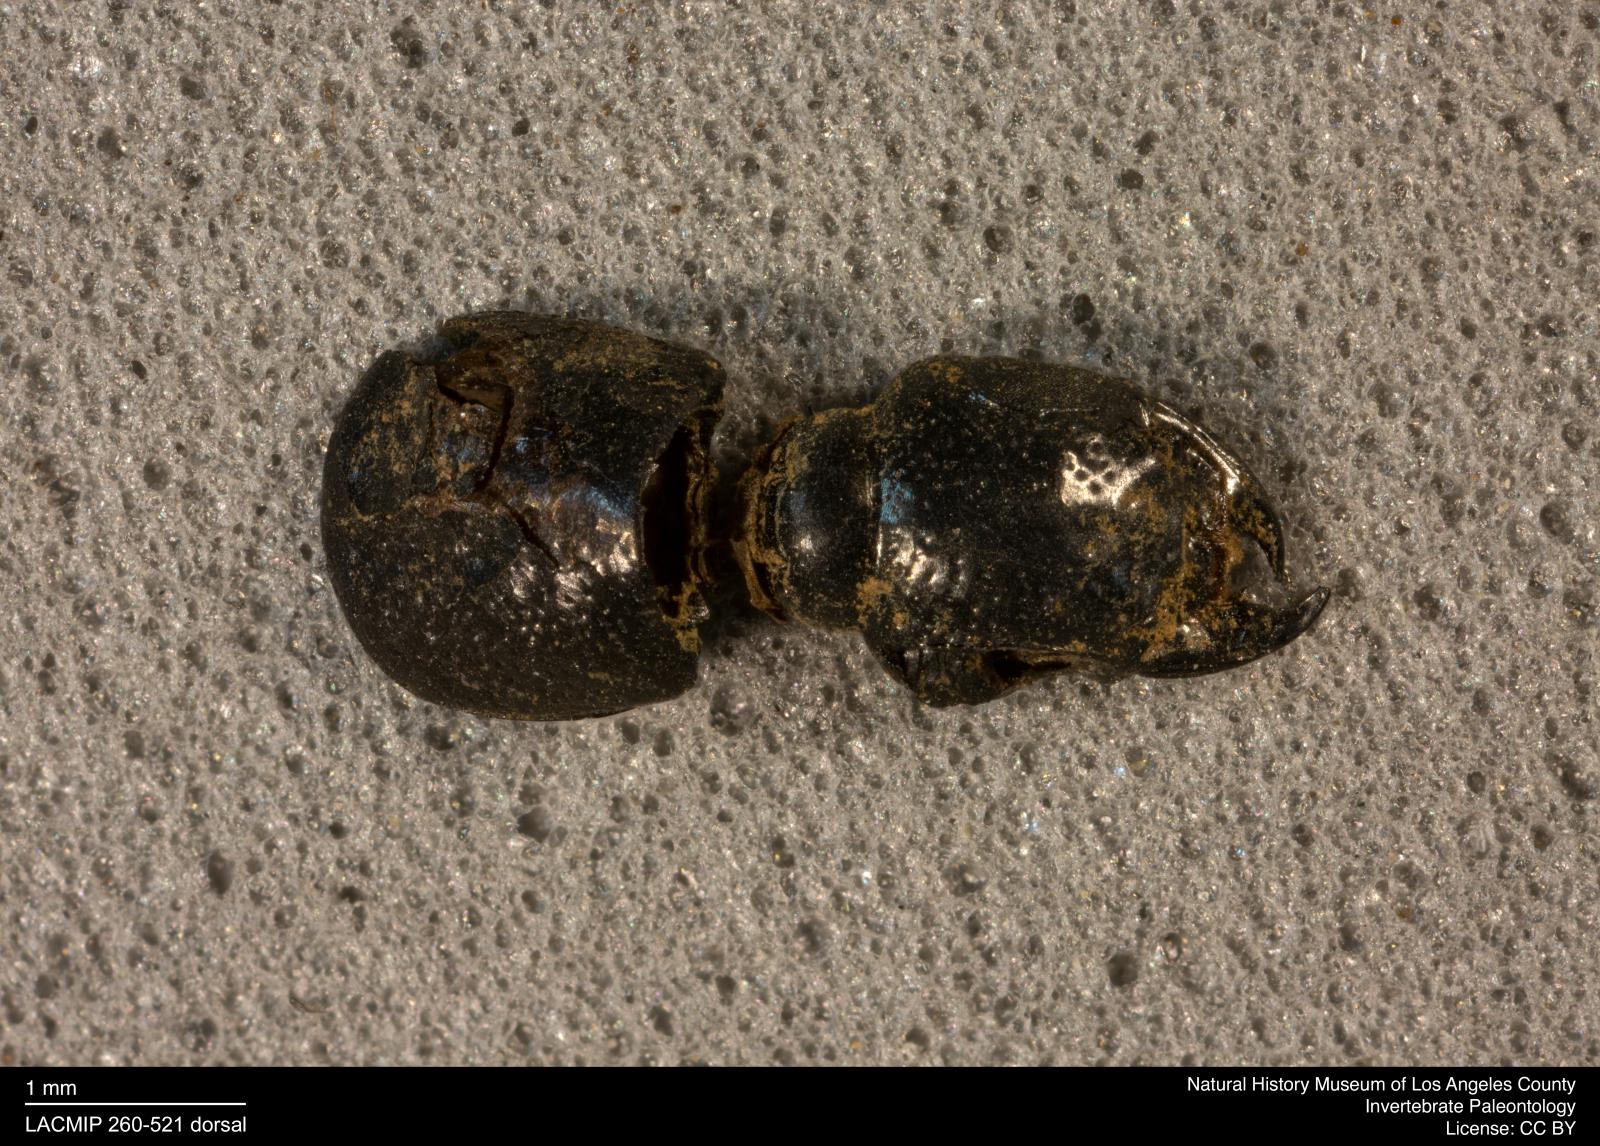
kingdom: Animalia
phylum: Arthropoda
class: Insecta
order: Coleoptera
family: Staphylinidae
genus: Philonthus
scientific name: Philonthus
